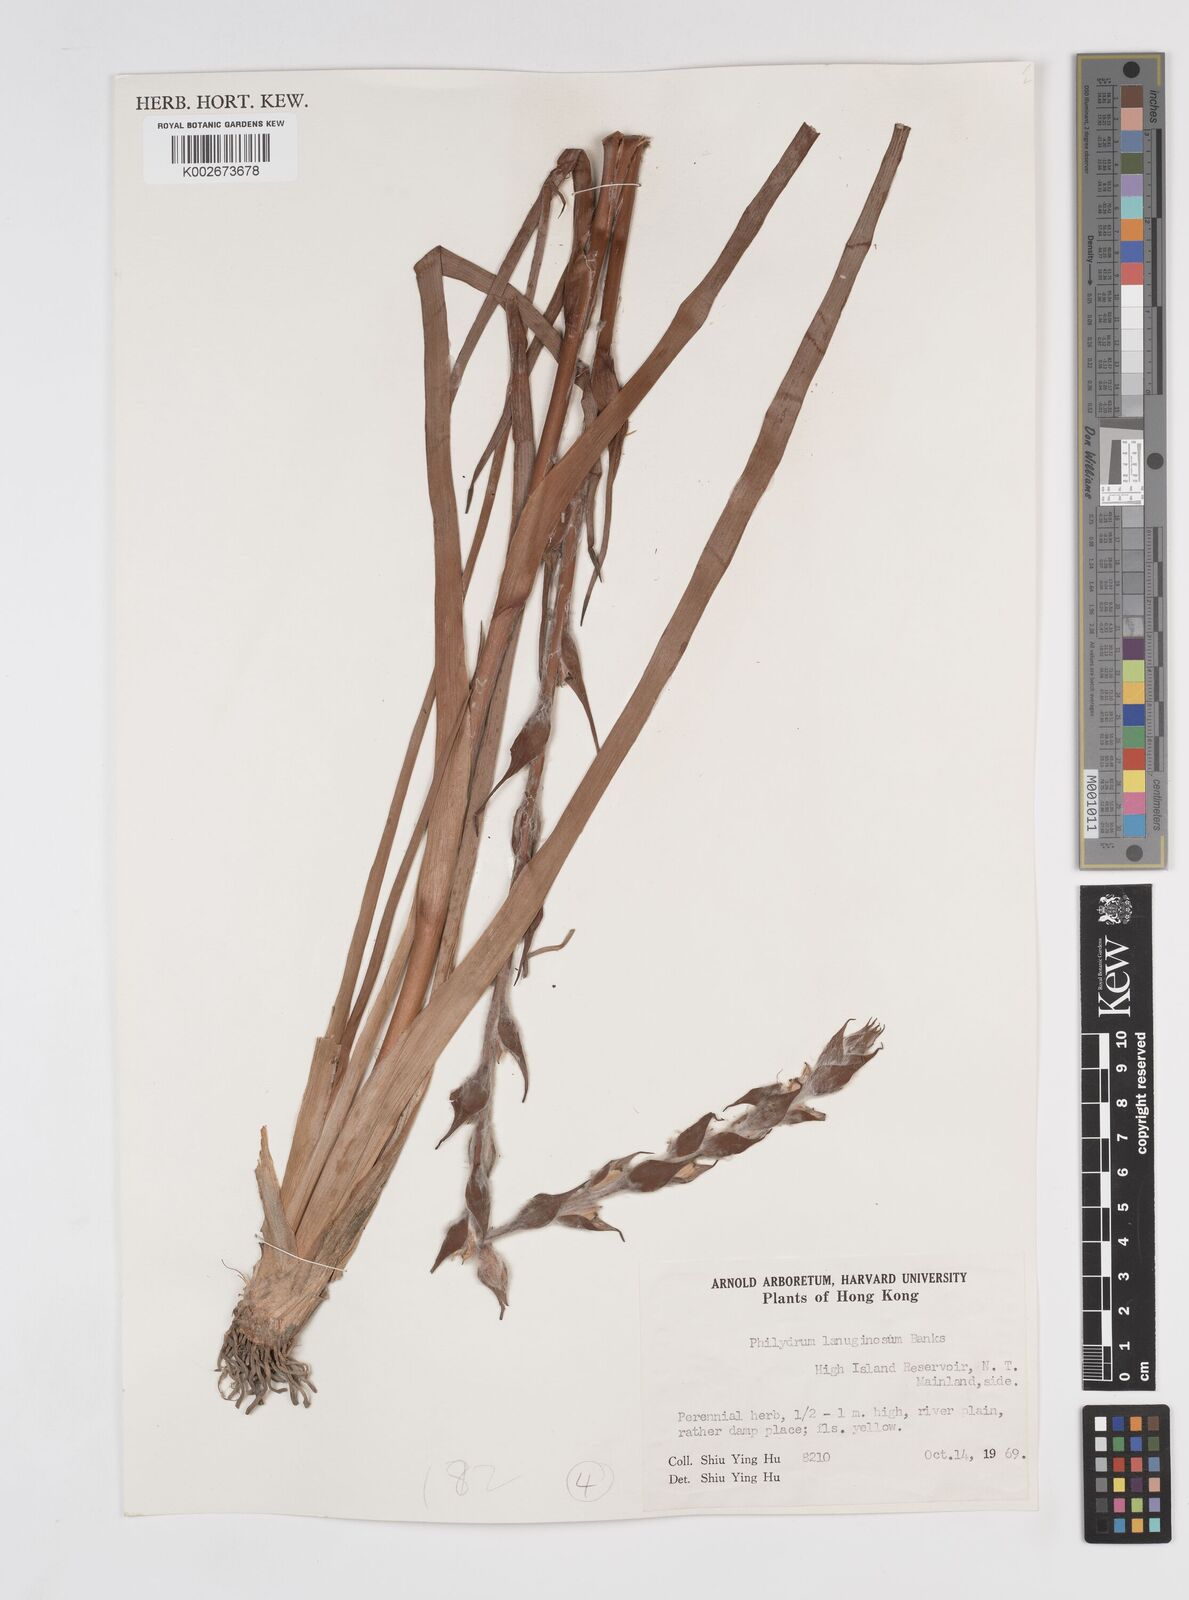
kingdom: Plantae
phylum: Tracheophyta
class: Liliopsida
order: Commelinales
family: Philydraceae
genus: Philydrum
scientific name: Philydrum lanuginosum
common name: Woolly frog's mouth
